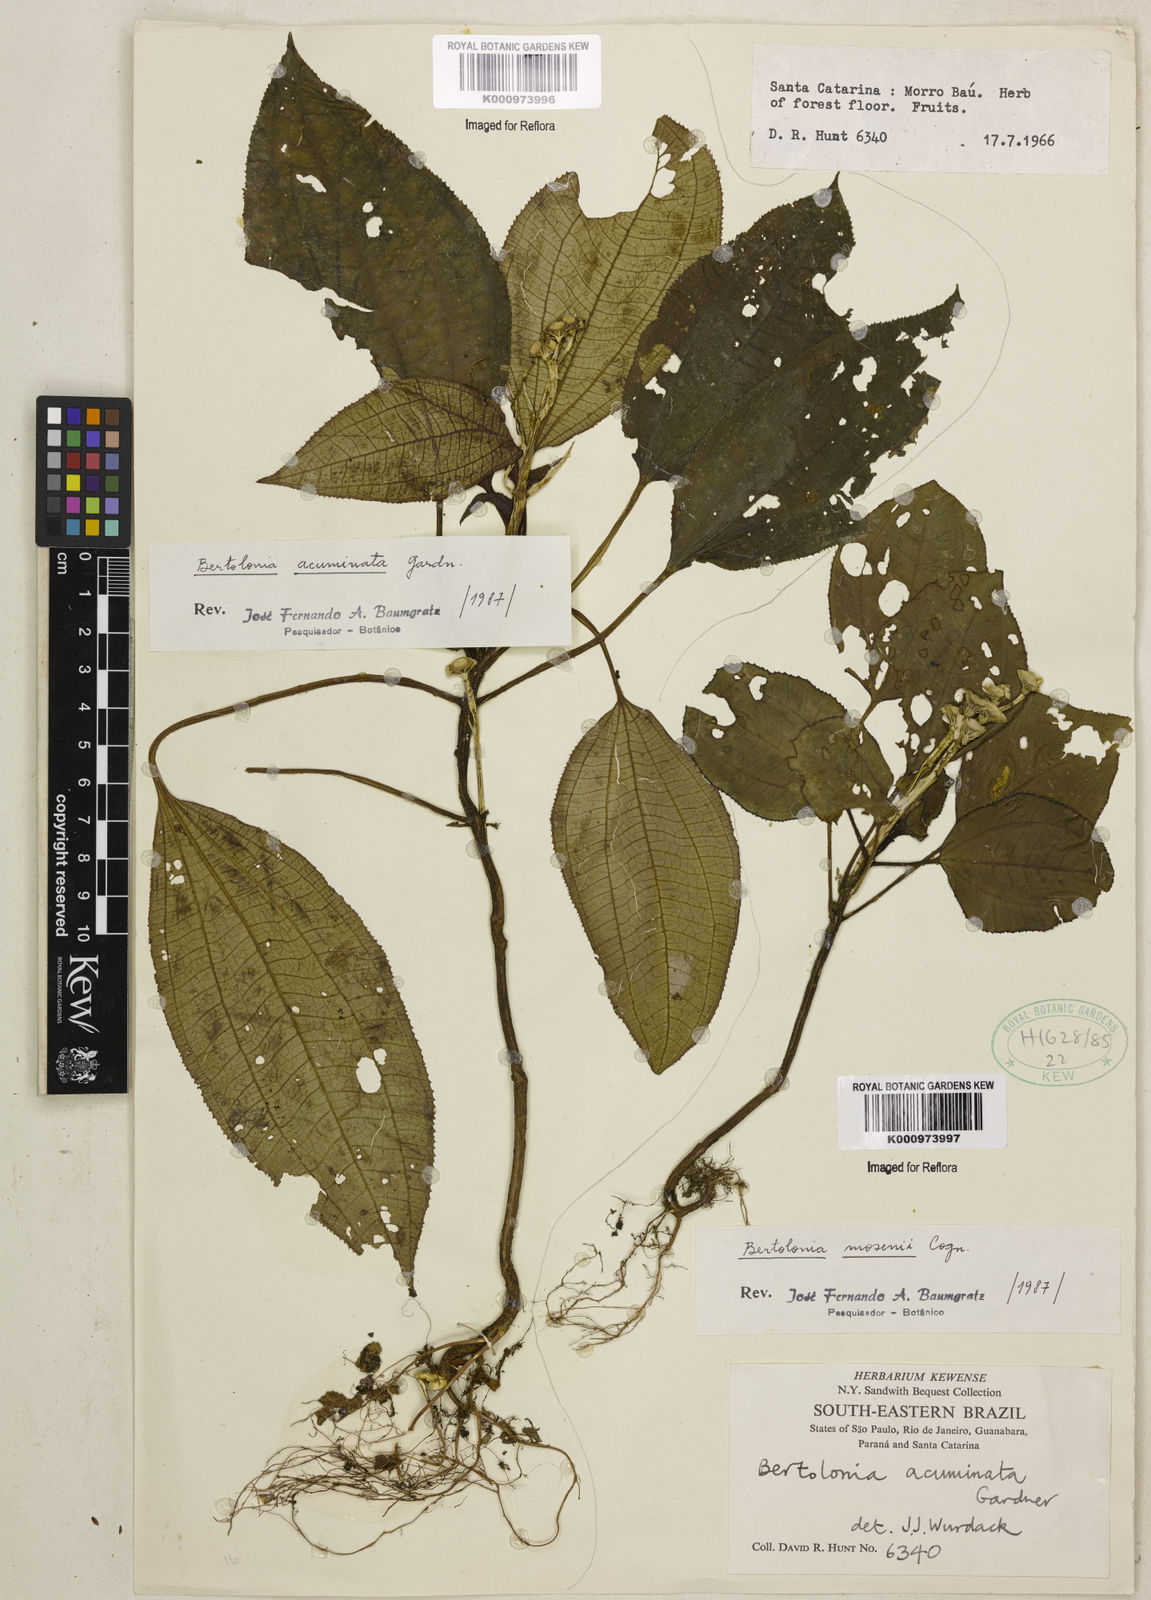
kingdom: Plantae
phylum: Tracheophyta
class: Magnoliopsida
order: Myrtales
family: Melastomataceae
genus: Bertolonia
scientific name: Bertolonia acuminata
